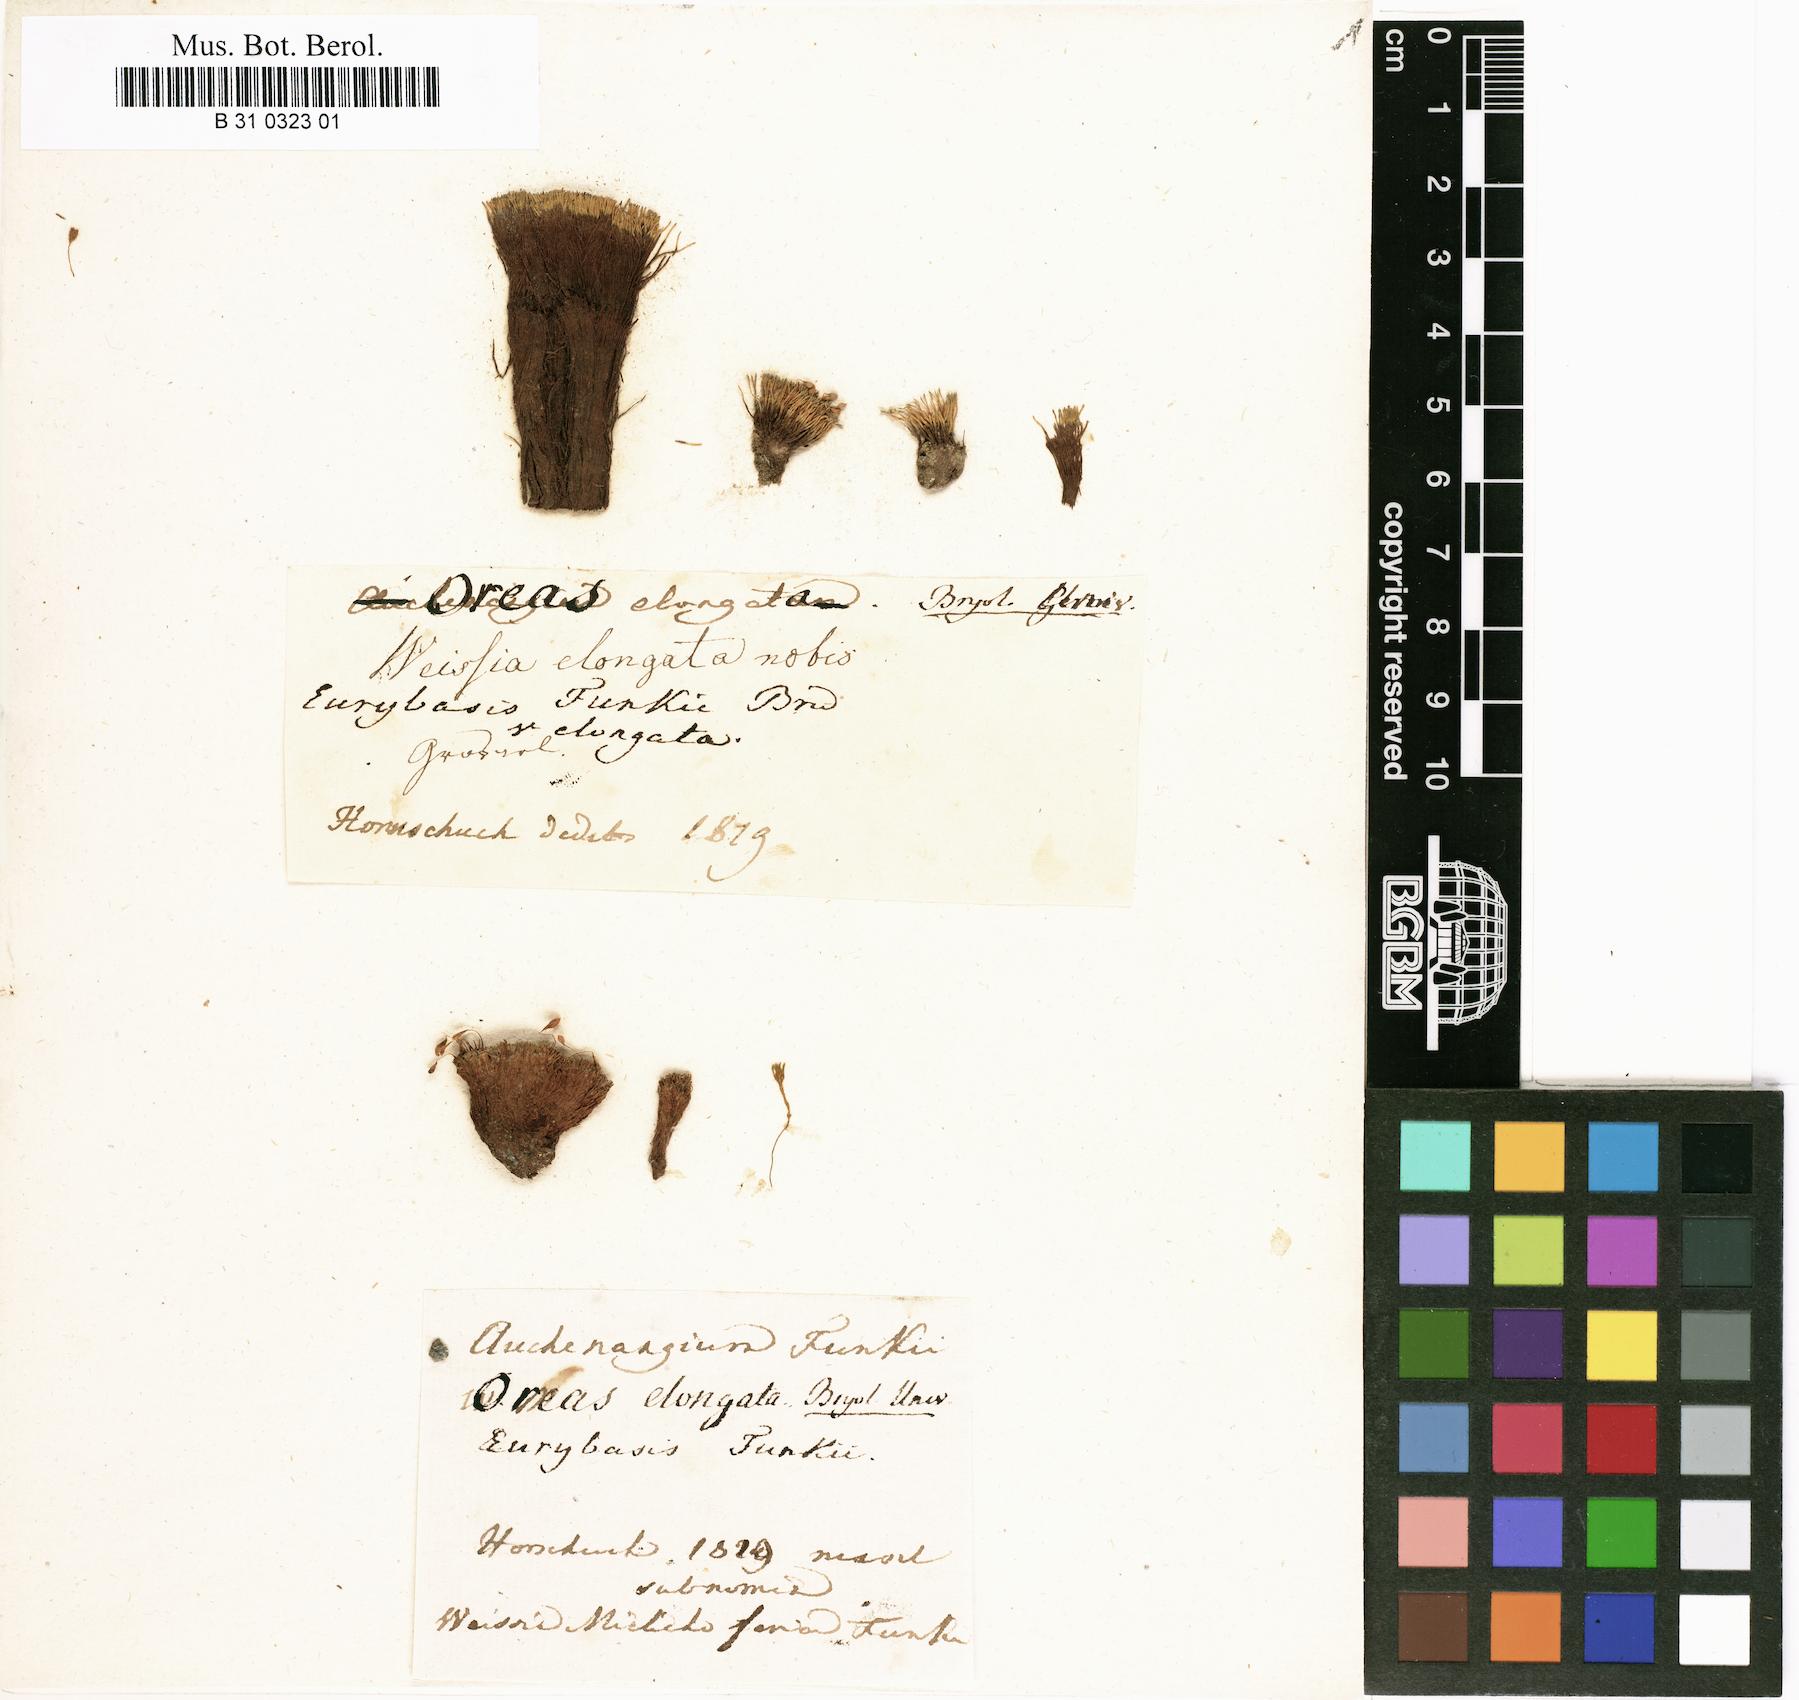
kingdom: Plantae
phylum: Bryophyta
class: Bryopsida
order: Bryales
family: Mniaceae
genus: Mielichhoferia
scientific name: Mielichhoferia elongata
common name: Elongate copper moss
